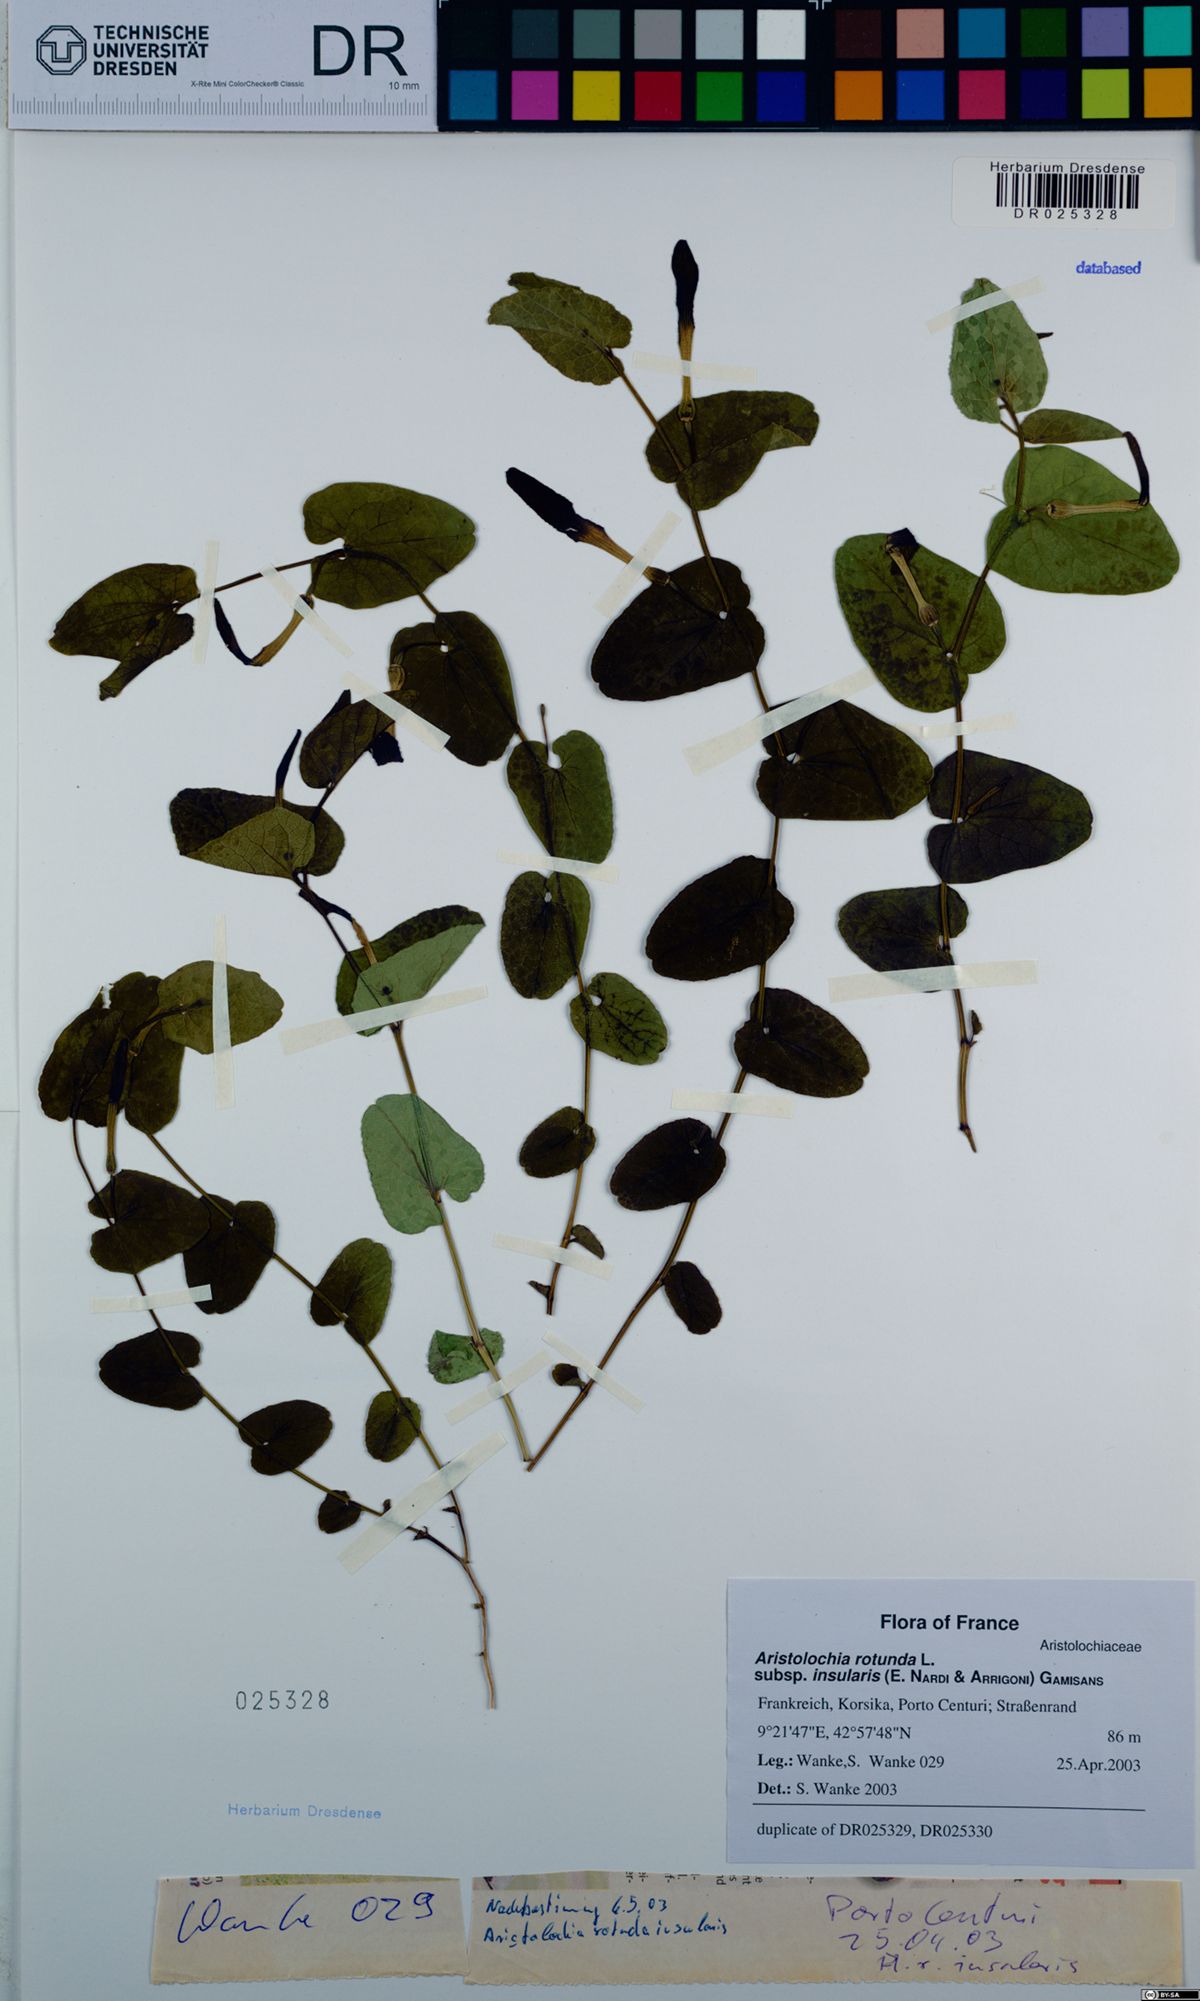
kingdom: Plantae
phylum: Tracheophyta
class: Magnoliopsida
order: Piperales
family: Aristolochiaceae
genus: Aristolochia
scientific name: Aristolochia rotunda
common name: Smearwort
